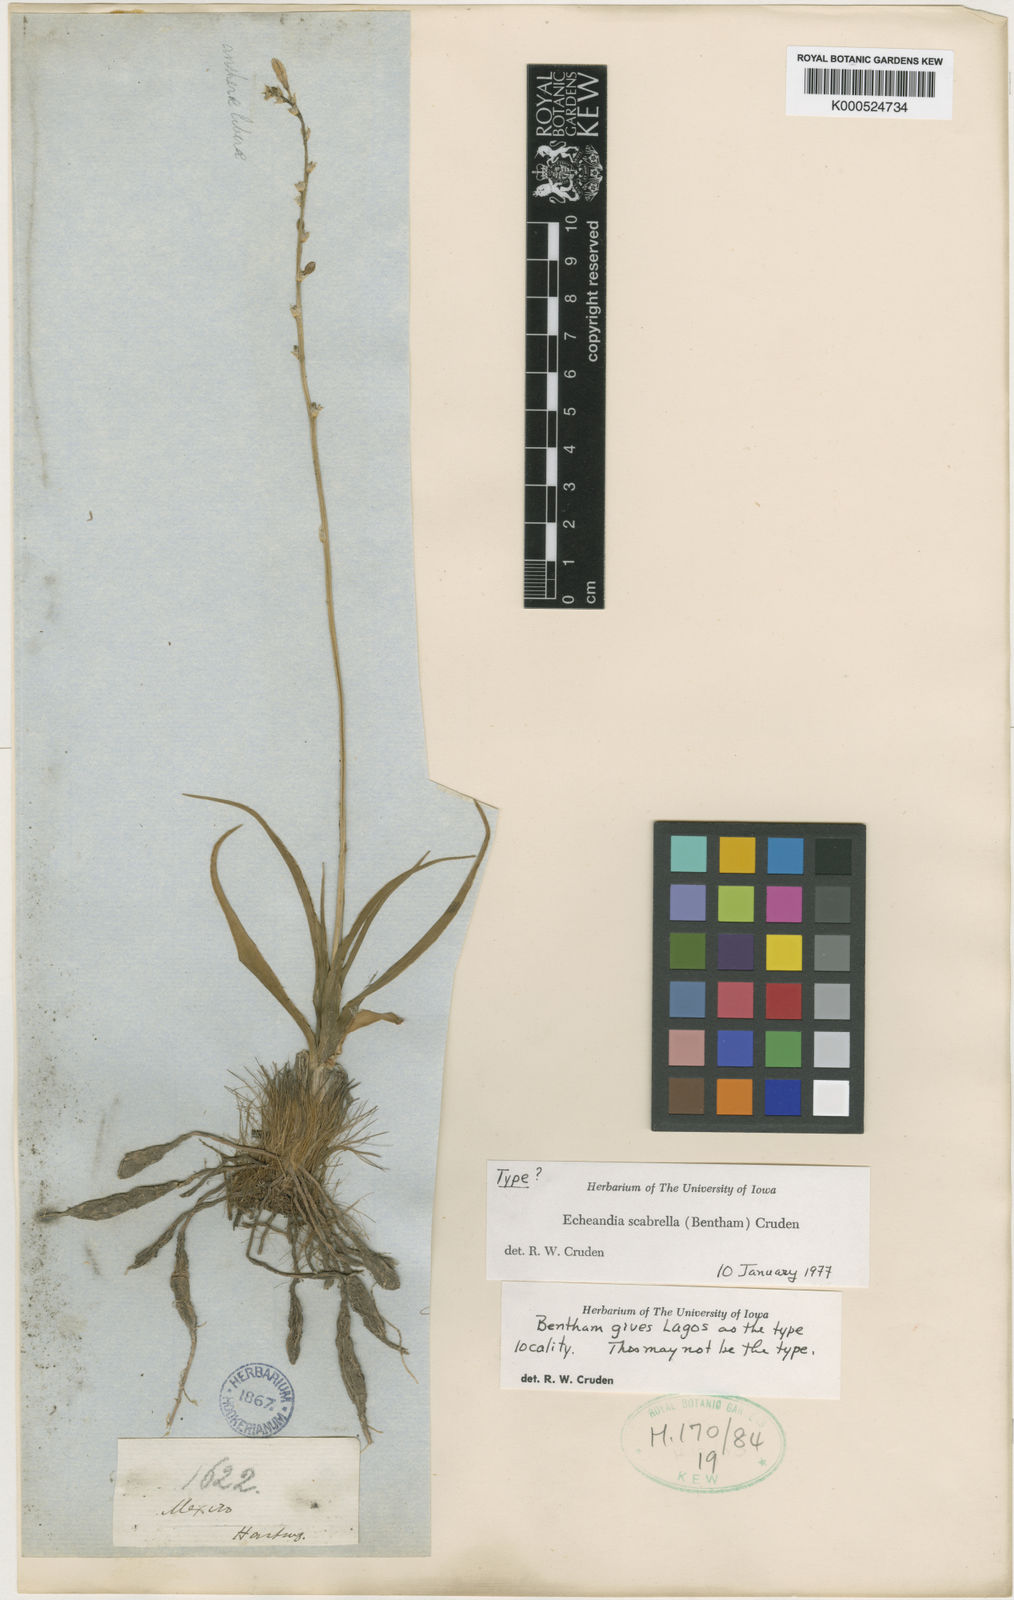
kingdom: Plantae
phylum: Tracheophyta
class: Liliopsida
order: Asparagales
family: Asparagaceae
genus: Echeandia
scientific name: Echeandia scabrella
